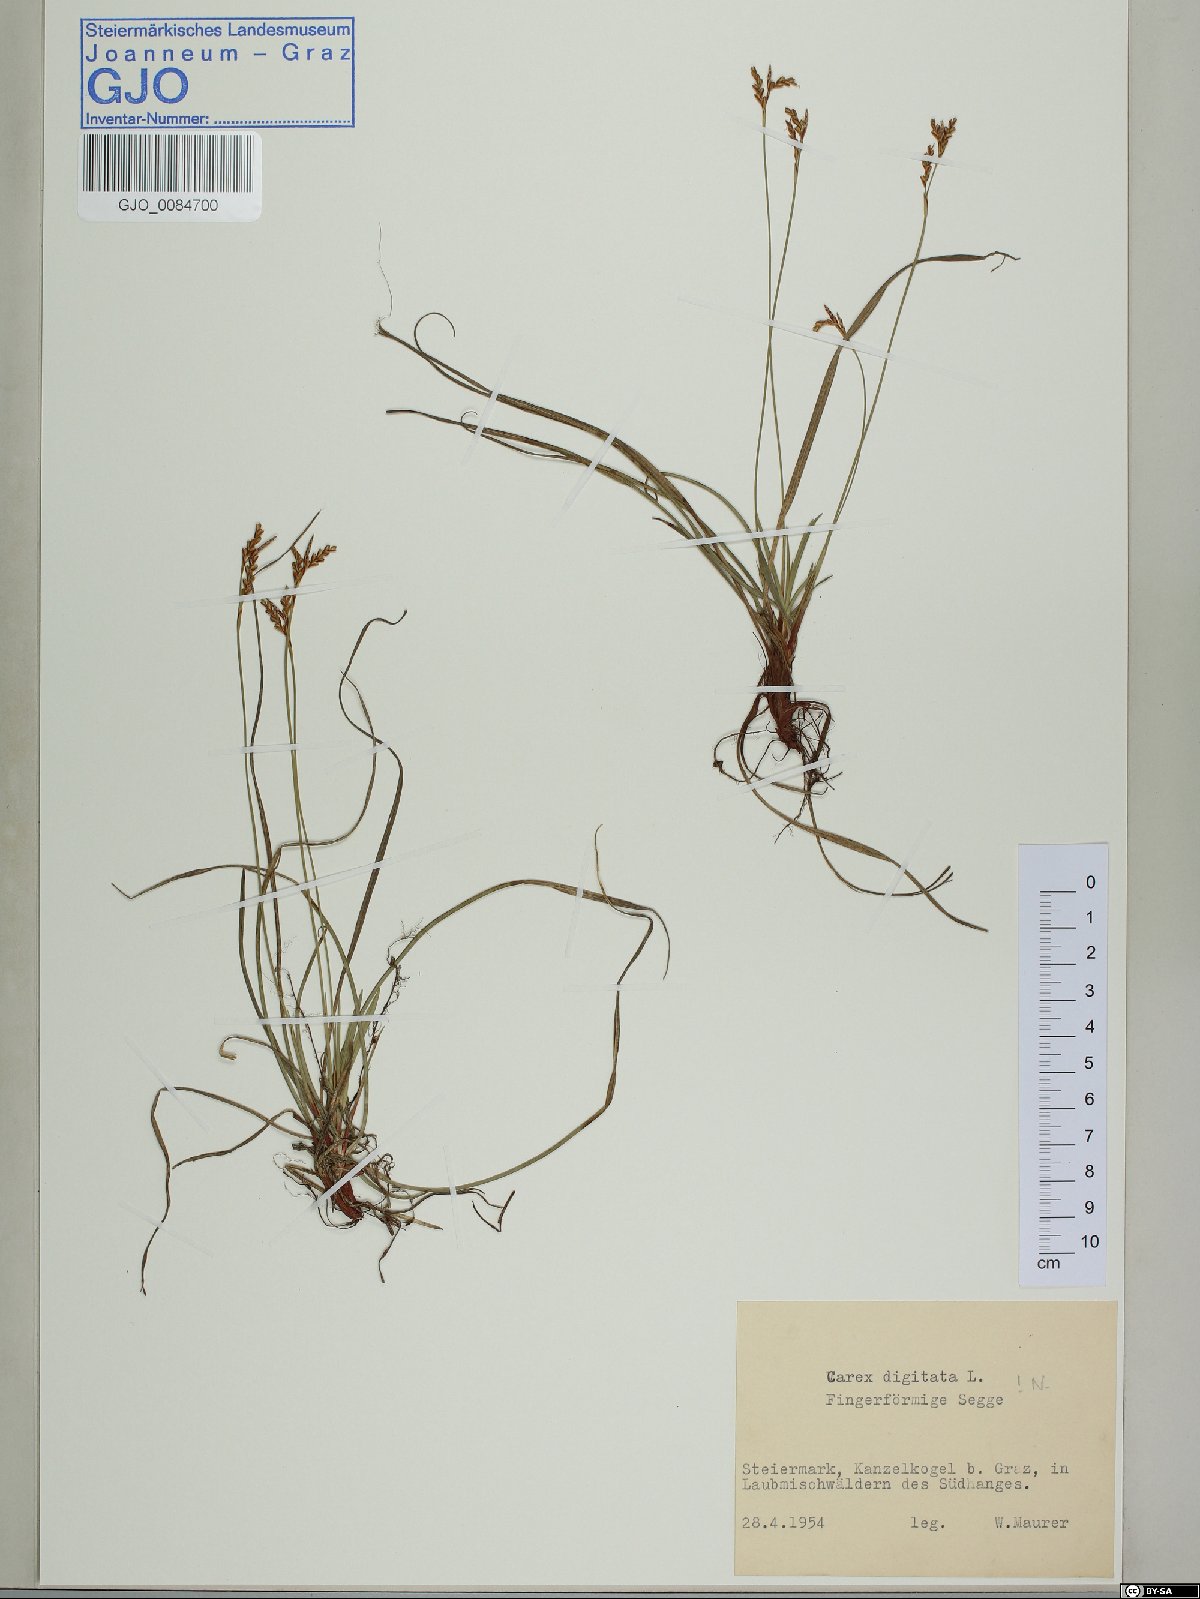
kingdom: Plantae
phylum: Tracheophyta
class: Liliopsida
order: Poales
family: Cyperaceae
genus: Carex
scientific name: Carex digitata
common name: Fingered sedge
